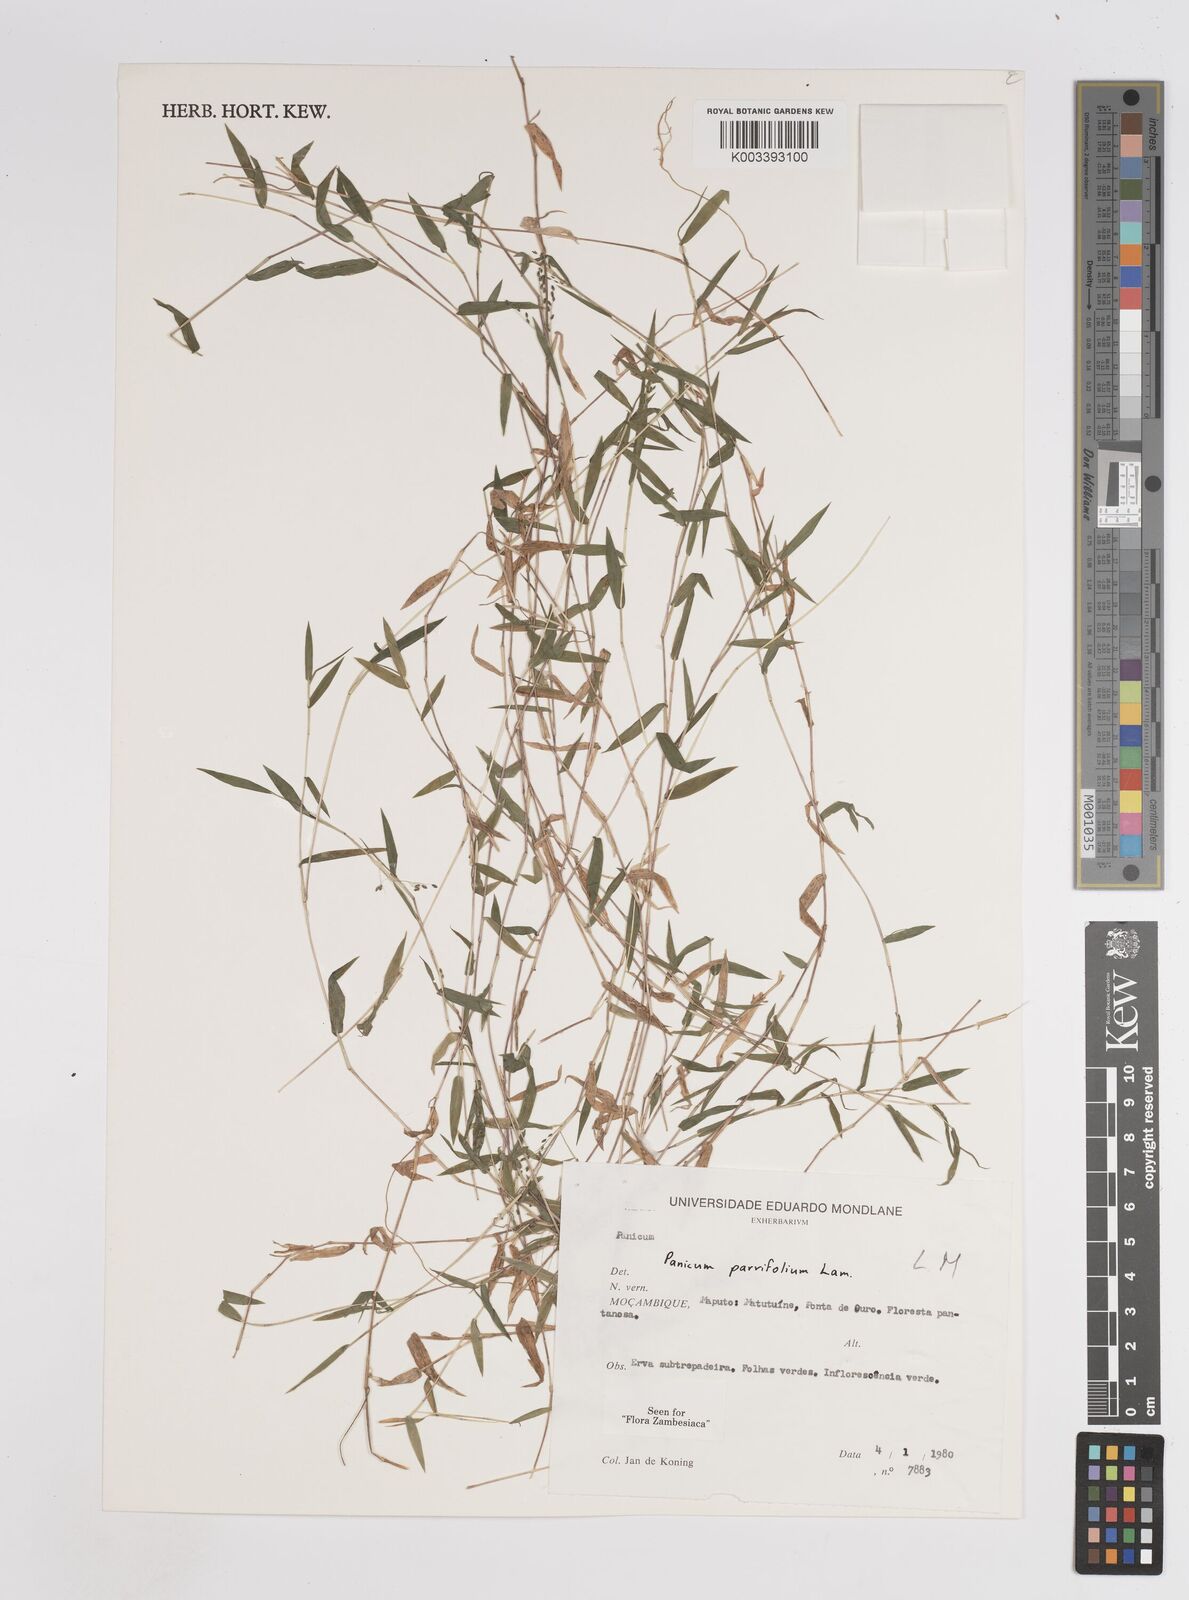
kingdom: Plantae
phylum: Tracheophyta
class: Liliopsida
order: Poales
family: Poaceae
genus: Trichanthecium
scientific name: Trichanthecium parvifolium
